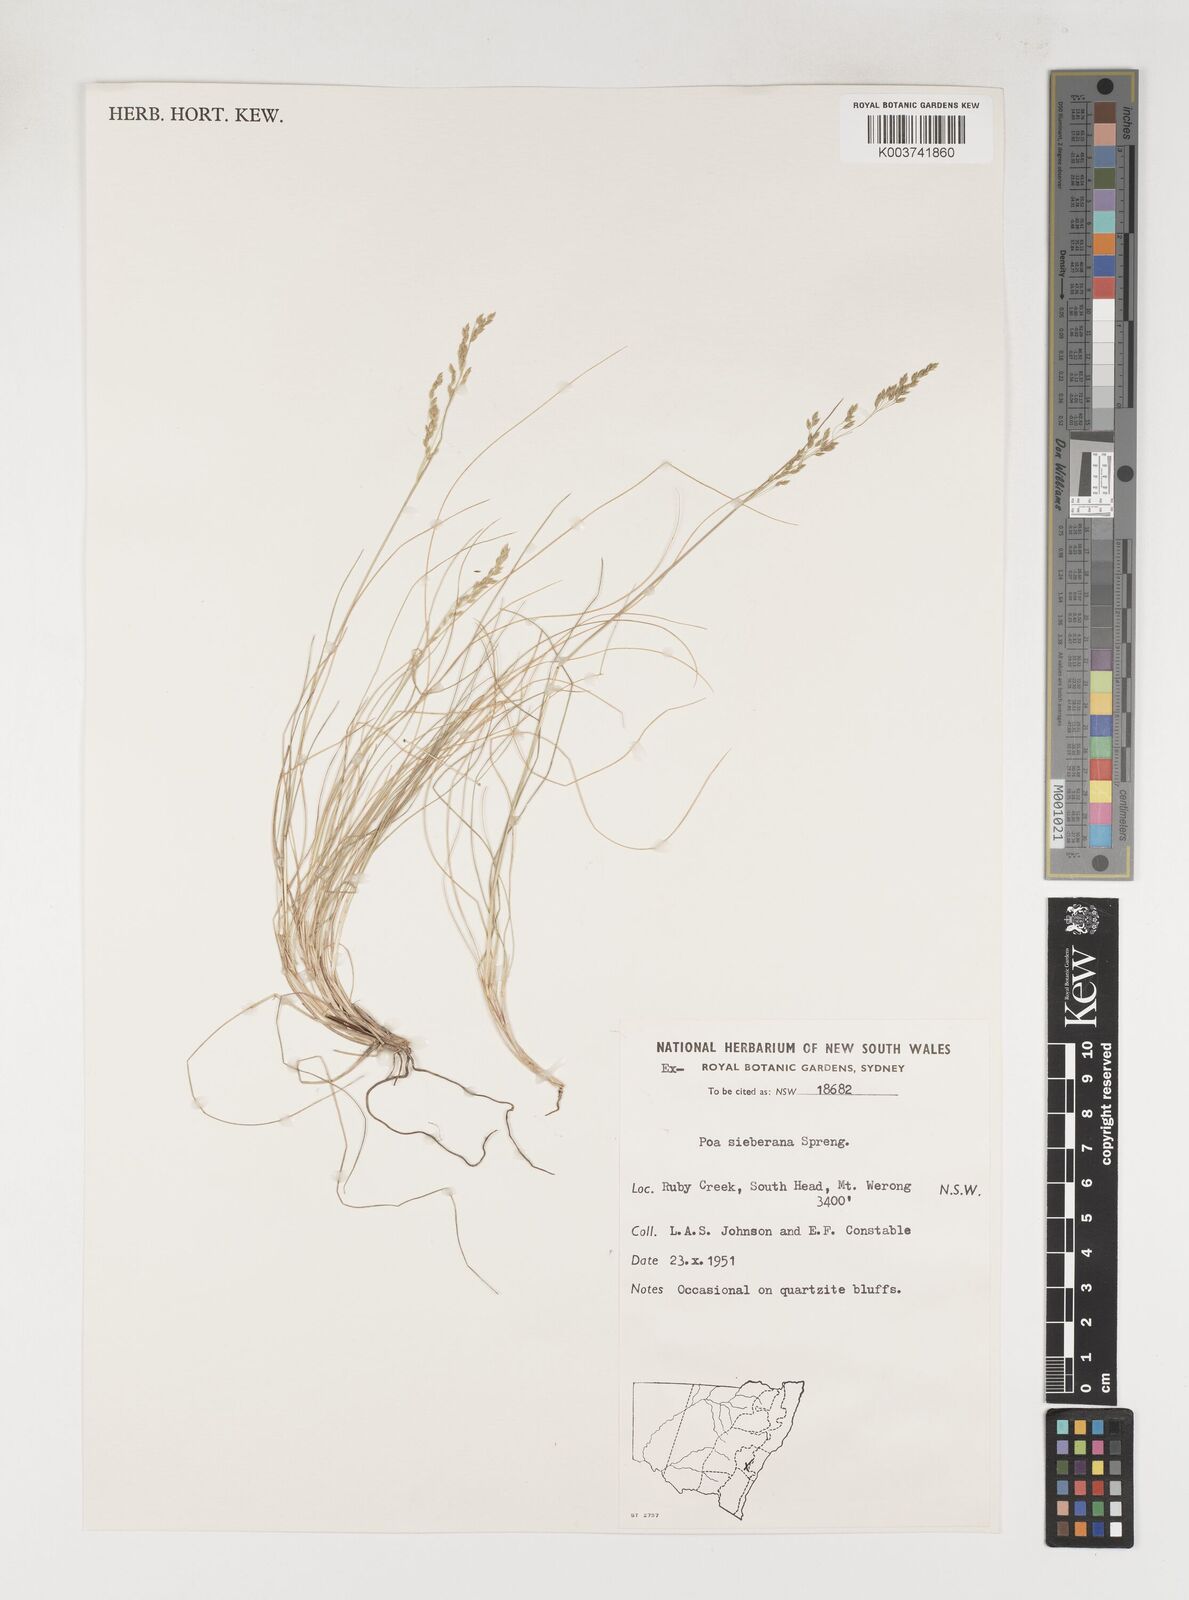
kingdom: Plantae
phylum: Tracheophyta
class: Liliopsida
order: Poales
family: Poaceae
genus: Poa
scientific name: Poa sieberiana
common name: Tussock poa
